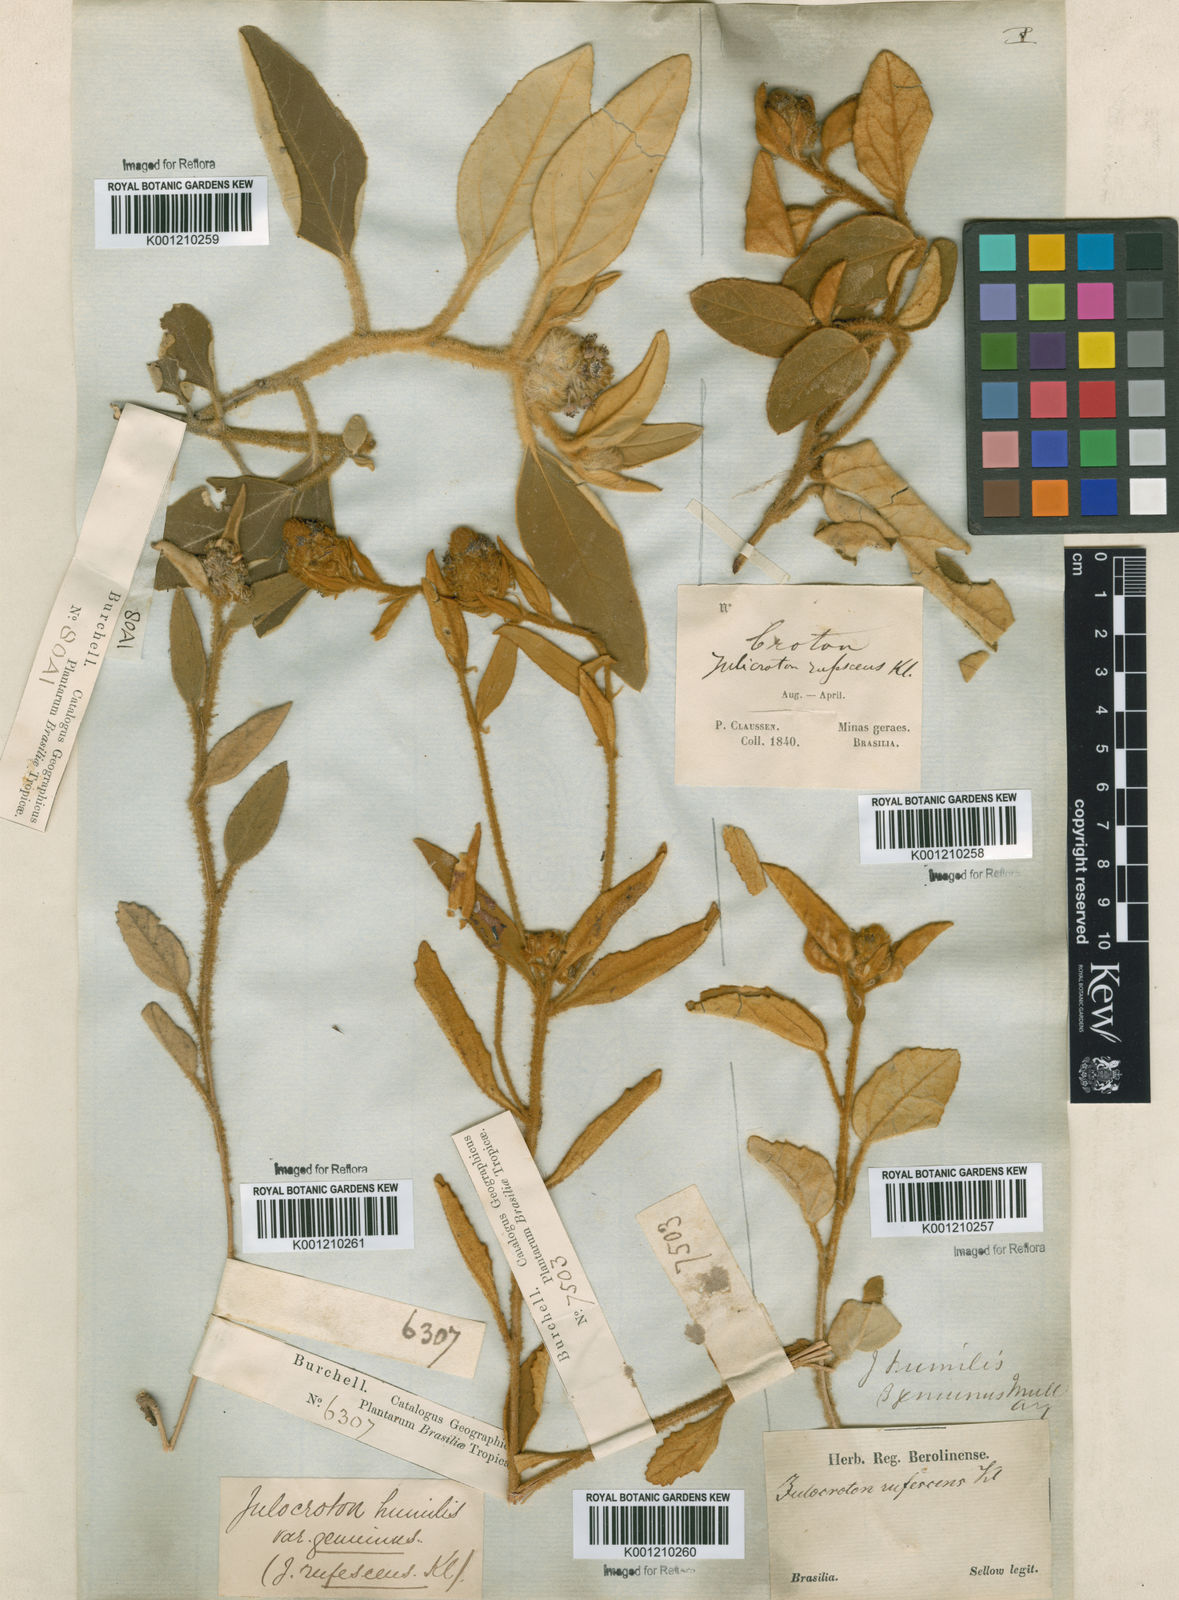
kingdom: Plantae
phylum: Tracheophyta
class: Magnoliopsida
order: Malpighiales
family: Euphorbiaceae
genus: Croton
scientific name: Croton solanaceus
